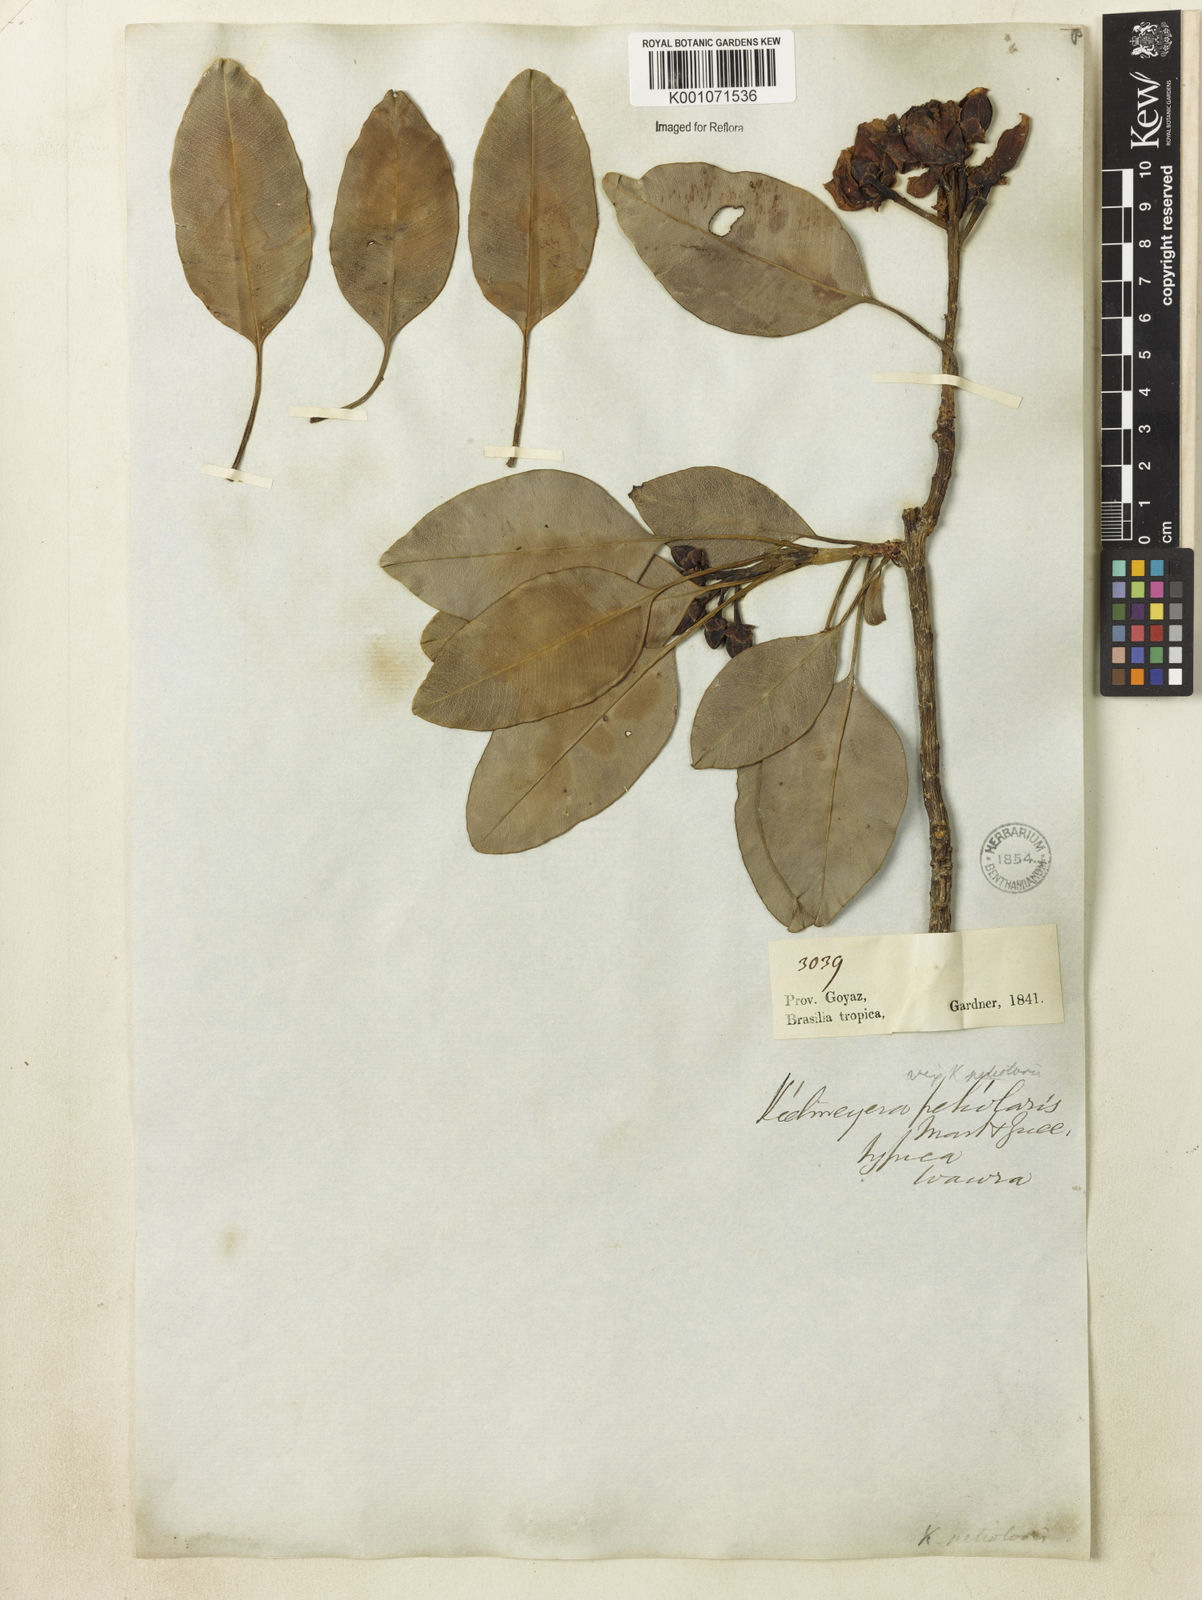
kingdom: Plantae
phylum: Tracheophyta
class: Magnoliopsida
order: Malpighiales
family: Calophyllaceae
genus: Kielmeyera
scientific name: Kielmeyera petiolaris
